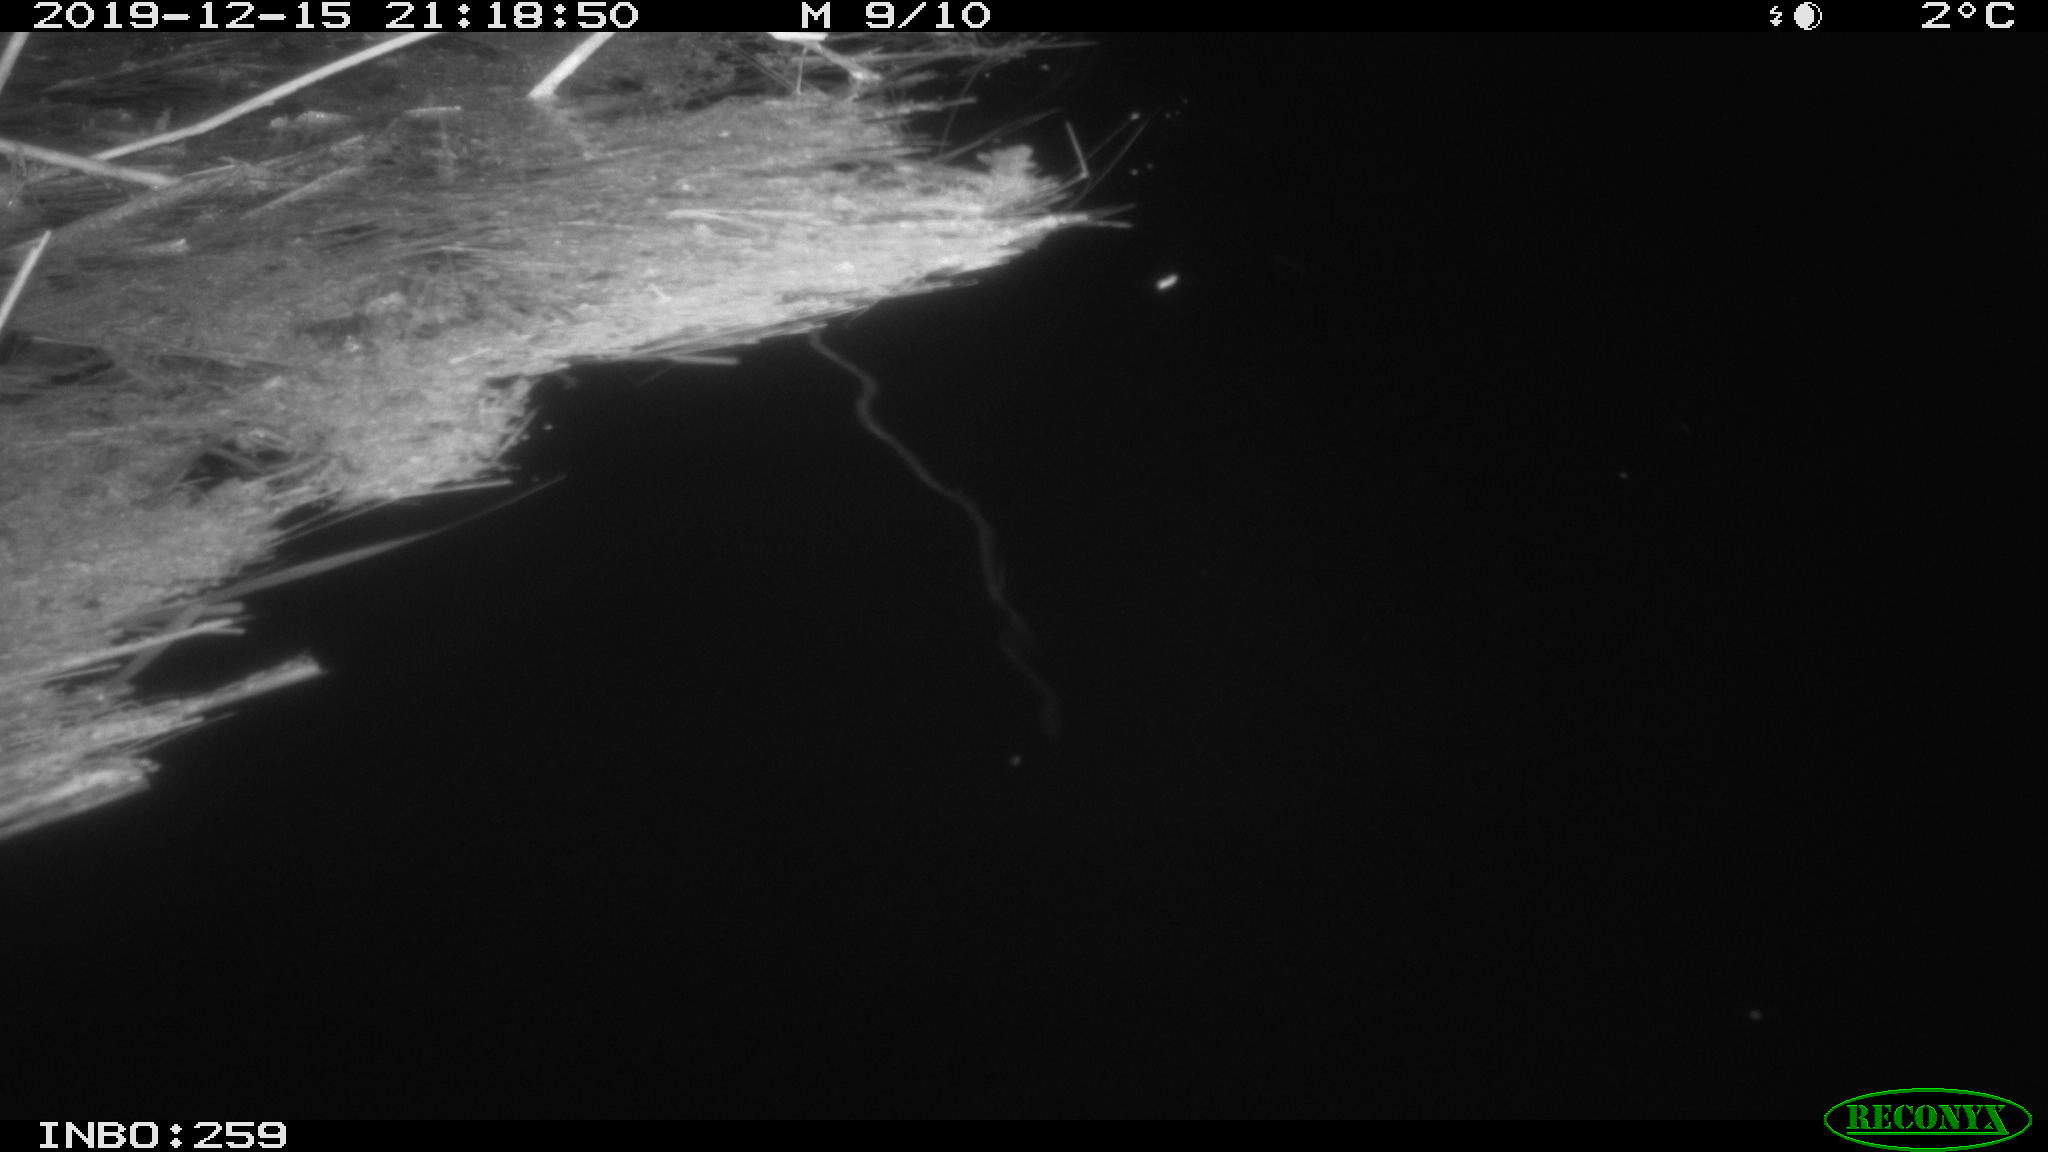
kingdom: Animalia
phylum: Chordata
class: Mammalia
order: Rodentia
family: Muridae
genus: Rattus
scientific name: Rattus norvegicus
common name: Brown rat
